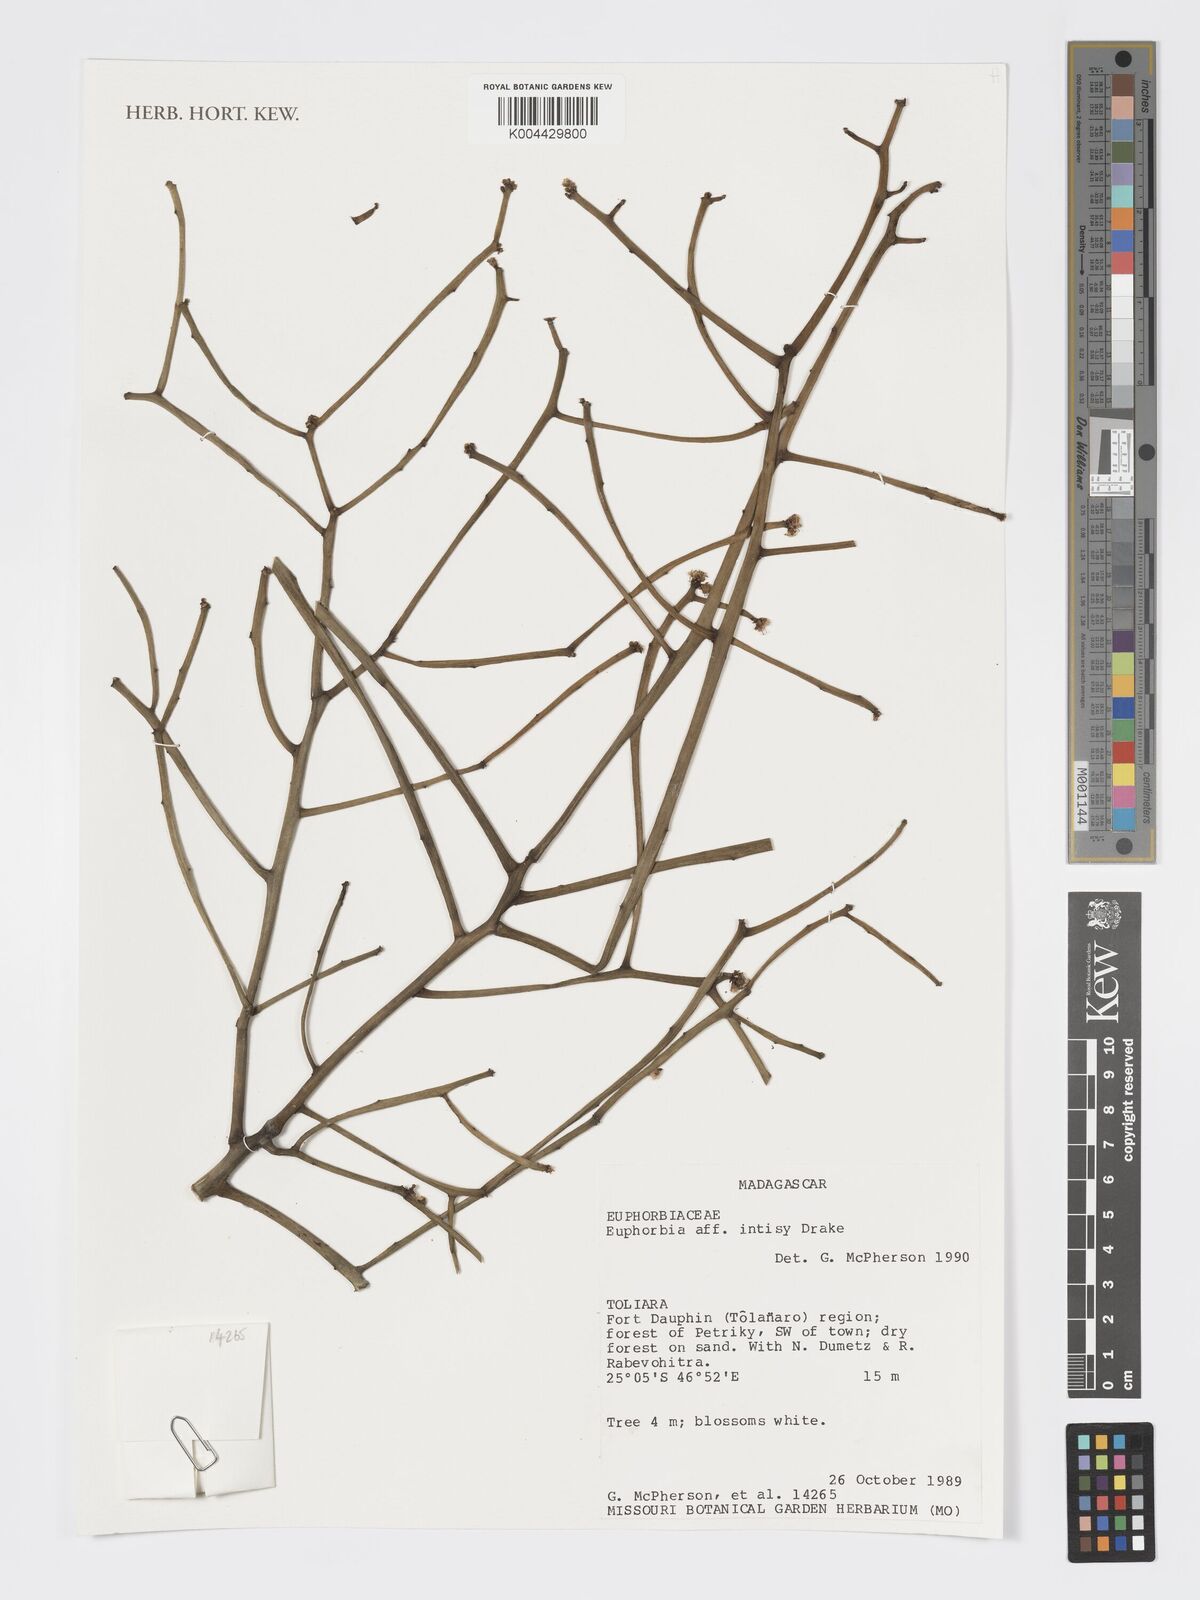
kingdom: Plantae
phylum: Tracheophyta
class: Magnoliopsida
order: Malpighiales
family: Euphorbiaceae
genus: Euphorbia
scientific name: Euphorbia intisy
